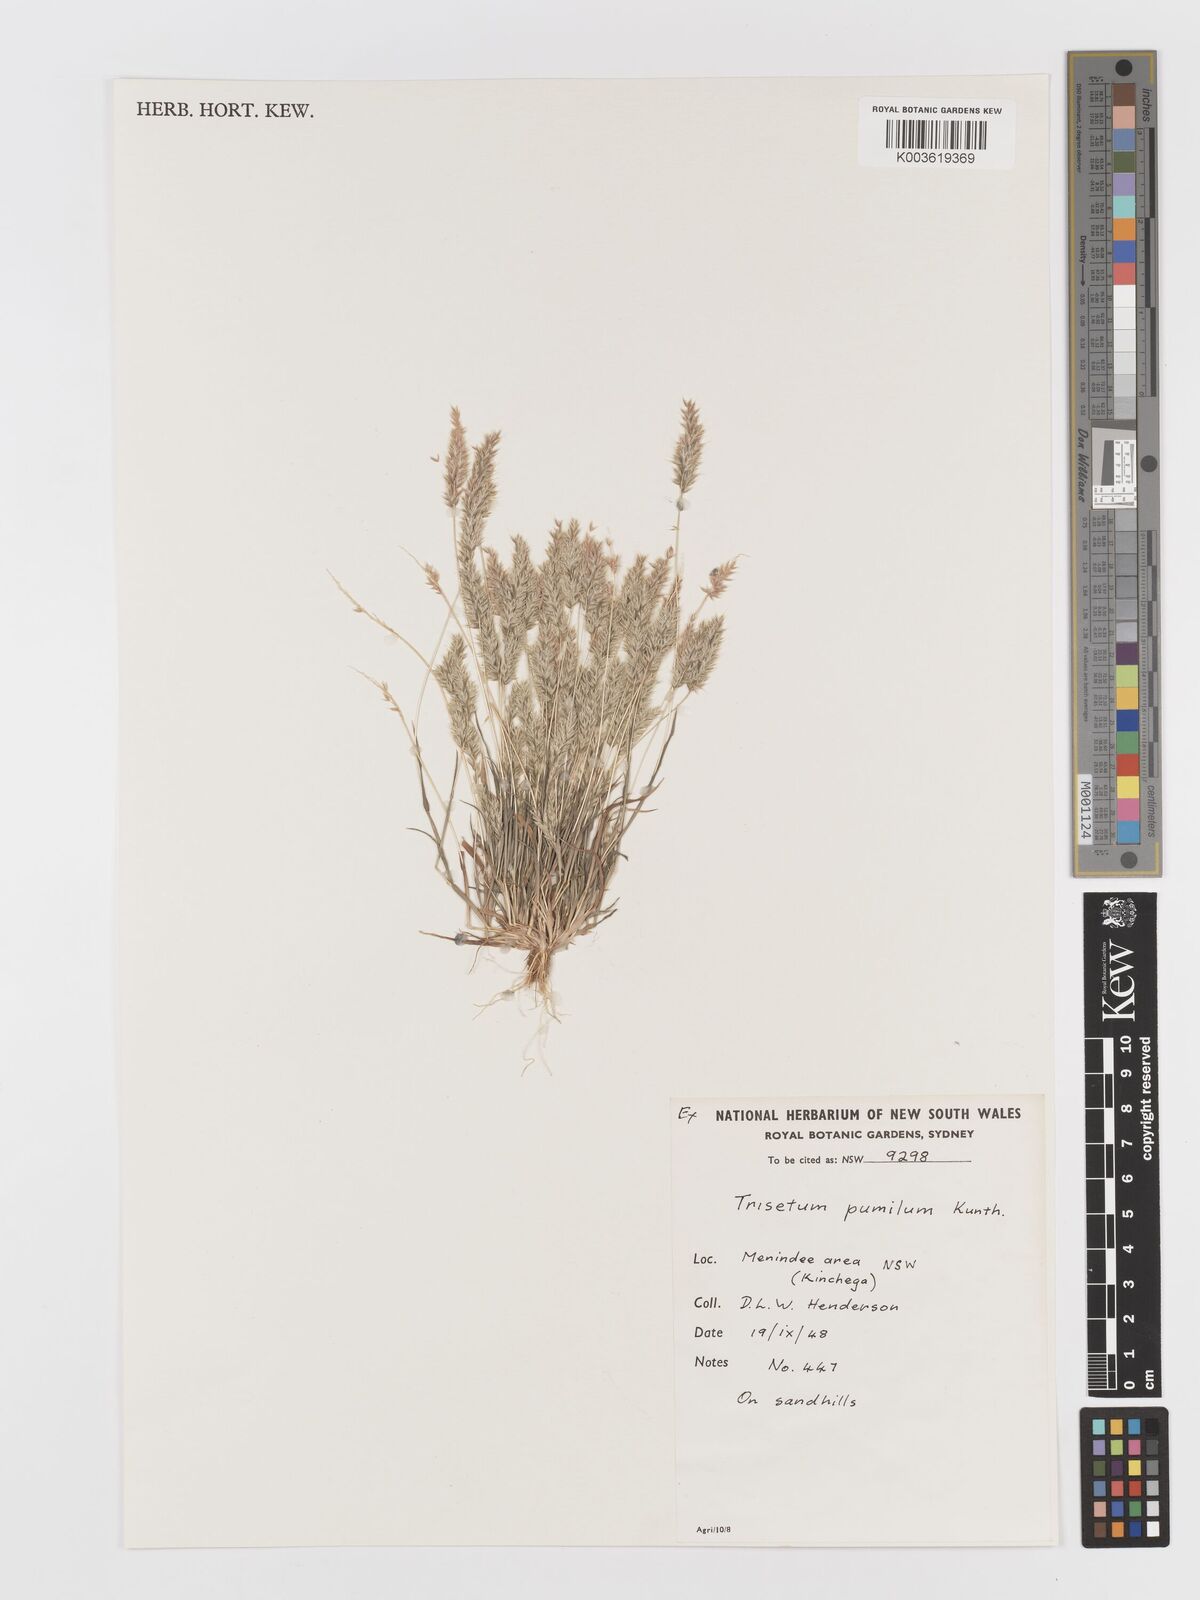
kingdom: Plantae
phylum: Tracheophyta
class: Liliopsida
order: Poales
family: Poaceae
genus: Rostraria
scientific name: Rostraria pumila
